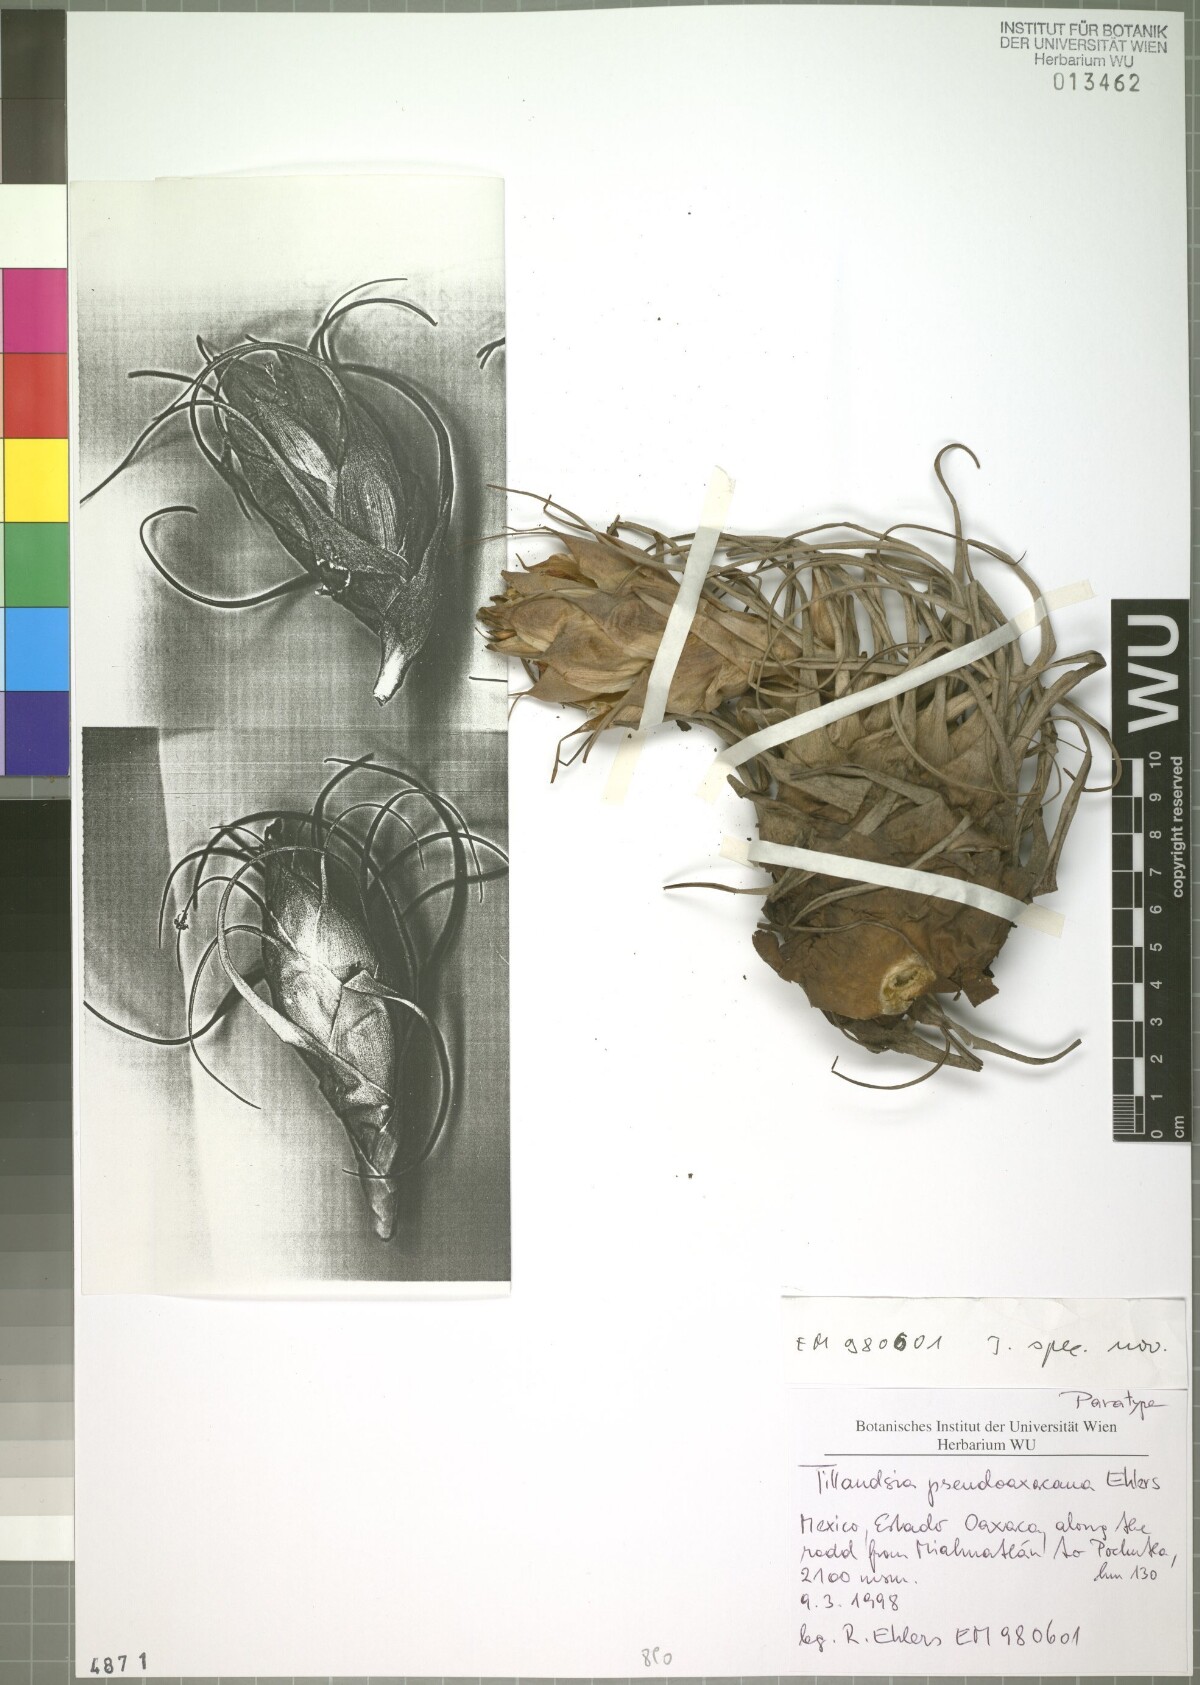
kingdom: Plantae
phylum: Tracheophyta
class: Liliopsida
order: Poales
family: Bromeliaceae
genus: Tillandsia
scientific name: Tillandsia pseudooaxacana
